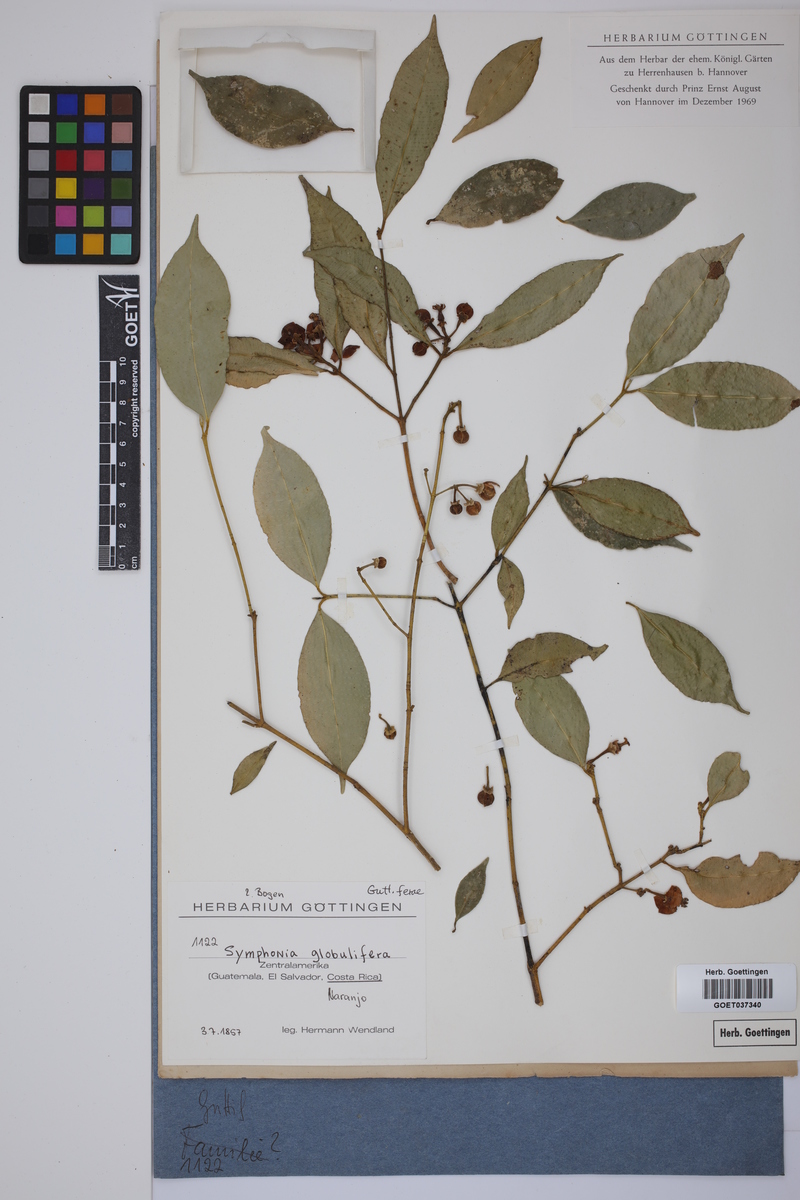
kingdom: Plantae
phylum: Tracheophyta
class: Magnoliopsida
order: Malpighiales
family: Clusiaceae
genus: Symphonia
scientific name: Symphonia globulifera
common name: Boarwood
